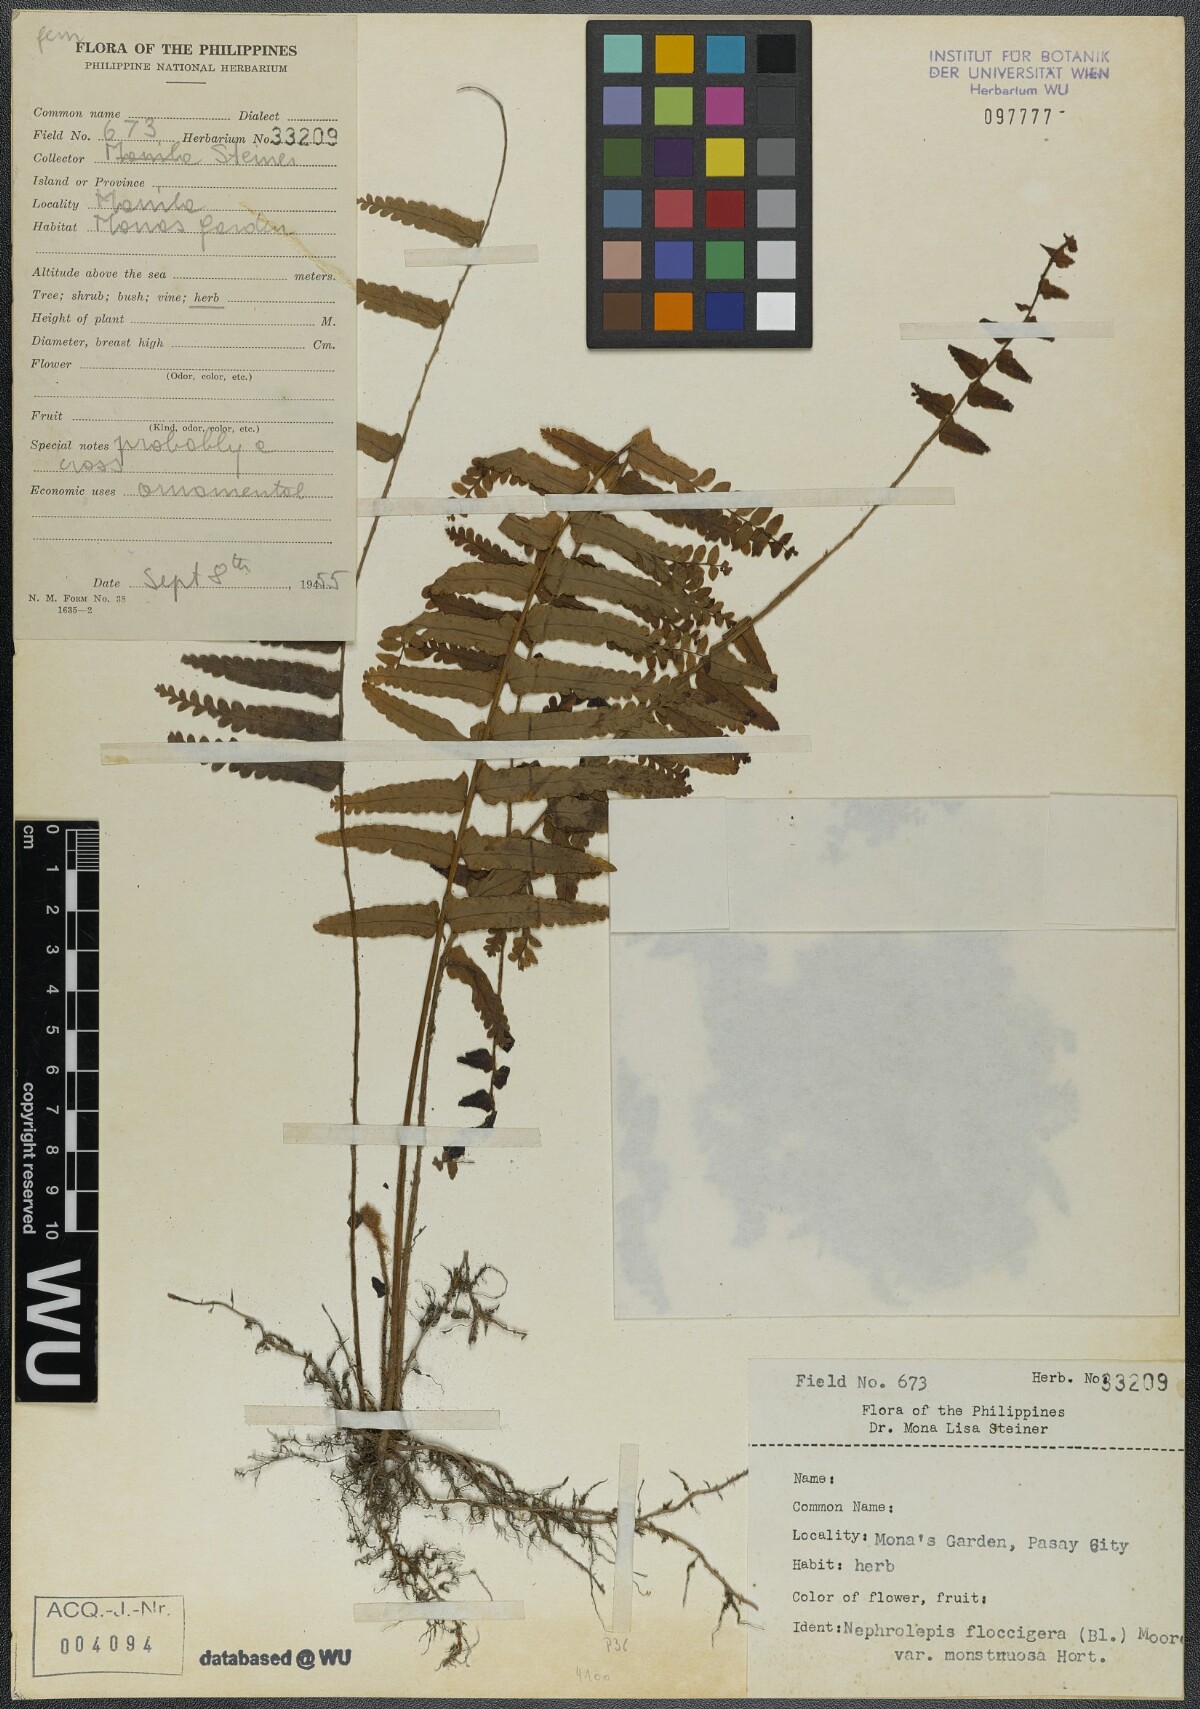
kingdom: Plantae
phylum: Tracheophyta
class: Polypodiopsida
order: Polypodiales
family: Nephrolepidaceae
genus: Nephrolepis
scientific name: Nephrolepis brownii
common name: Asian swordfern
